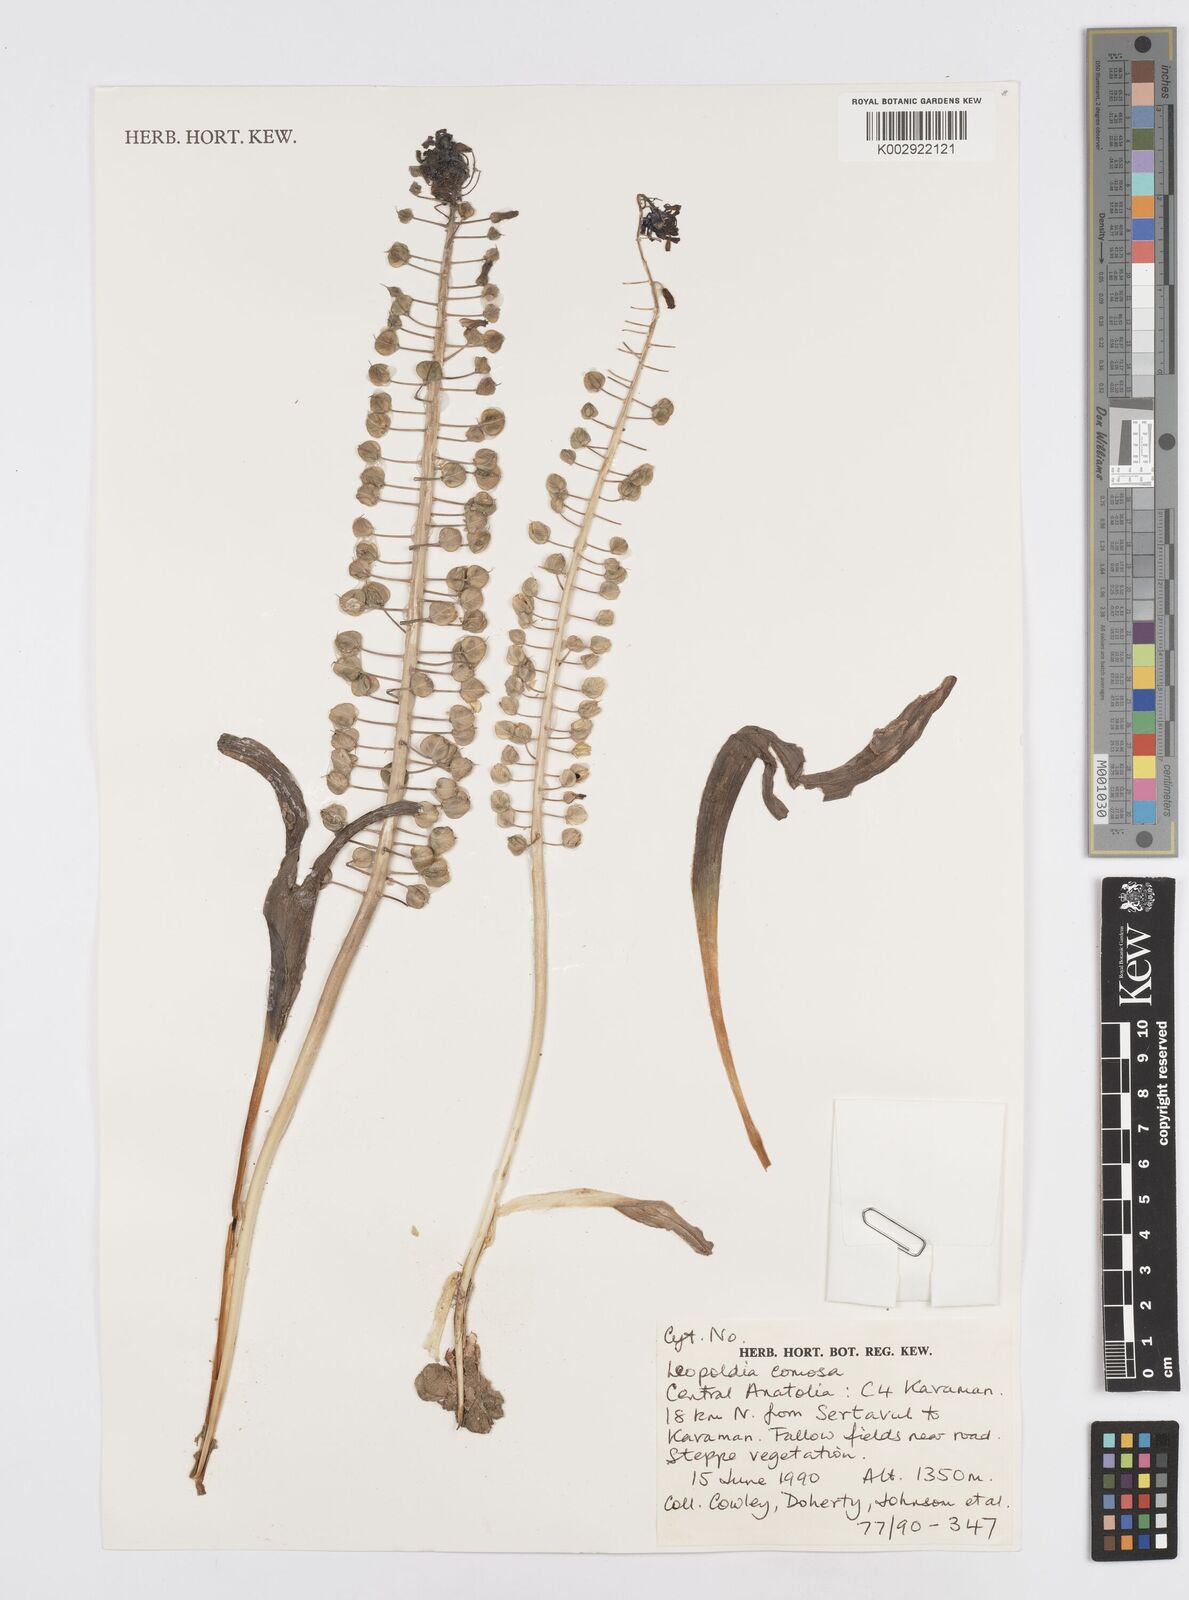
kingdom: Plantae
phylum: Tracheophyta
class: Liliopsida
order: Asparagales
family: Asparagaceae
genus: Muscari
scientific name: Muscari comosum
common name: Tassel hyacinth
